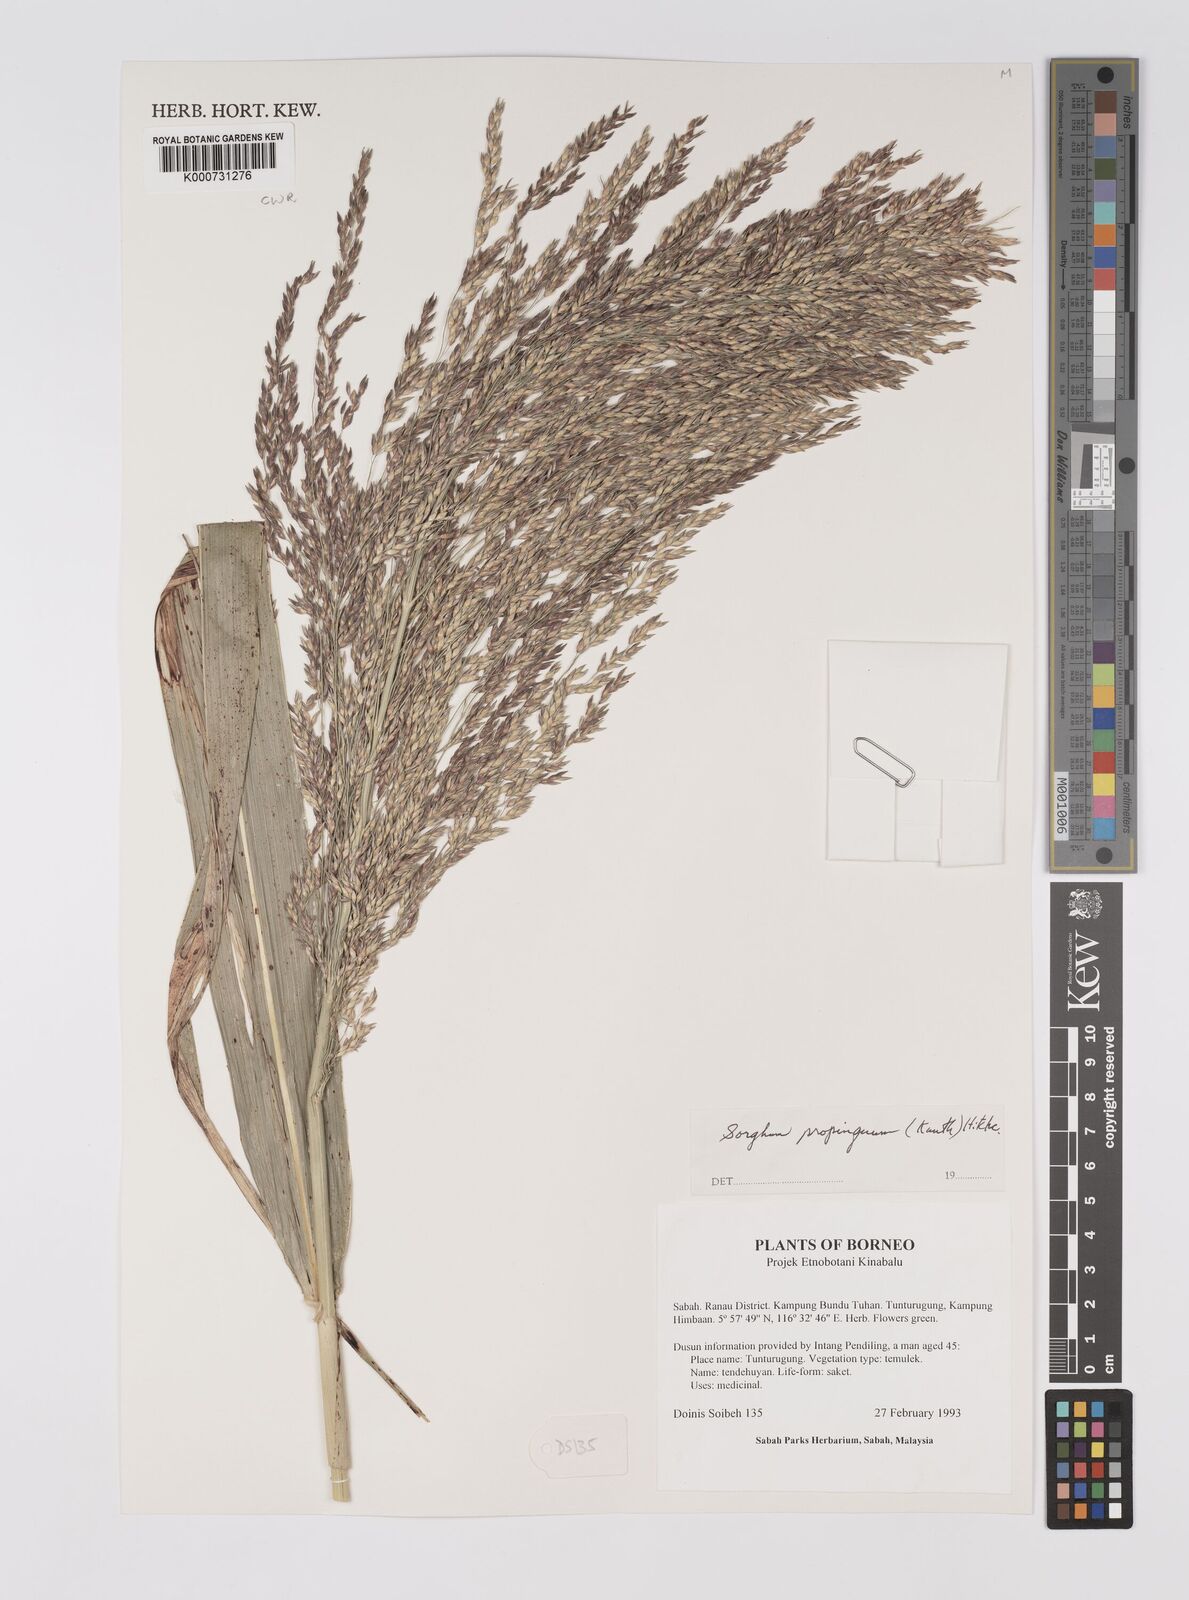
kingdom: Plantae
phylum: Tracheophyta
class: Liliopsida
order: Poales
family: Poaceae
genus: Sorghum
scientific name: Sorghum propinquum
